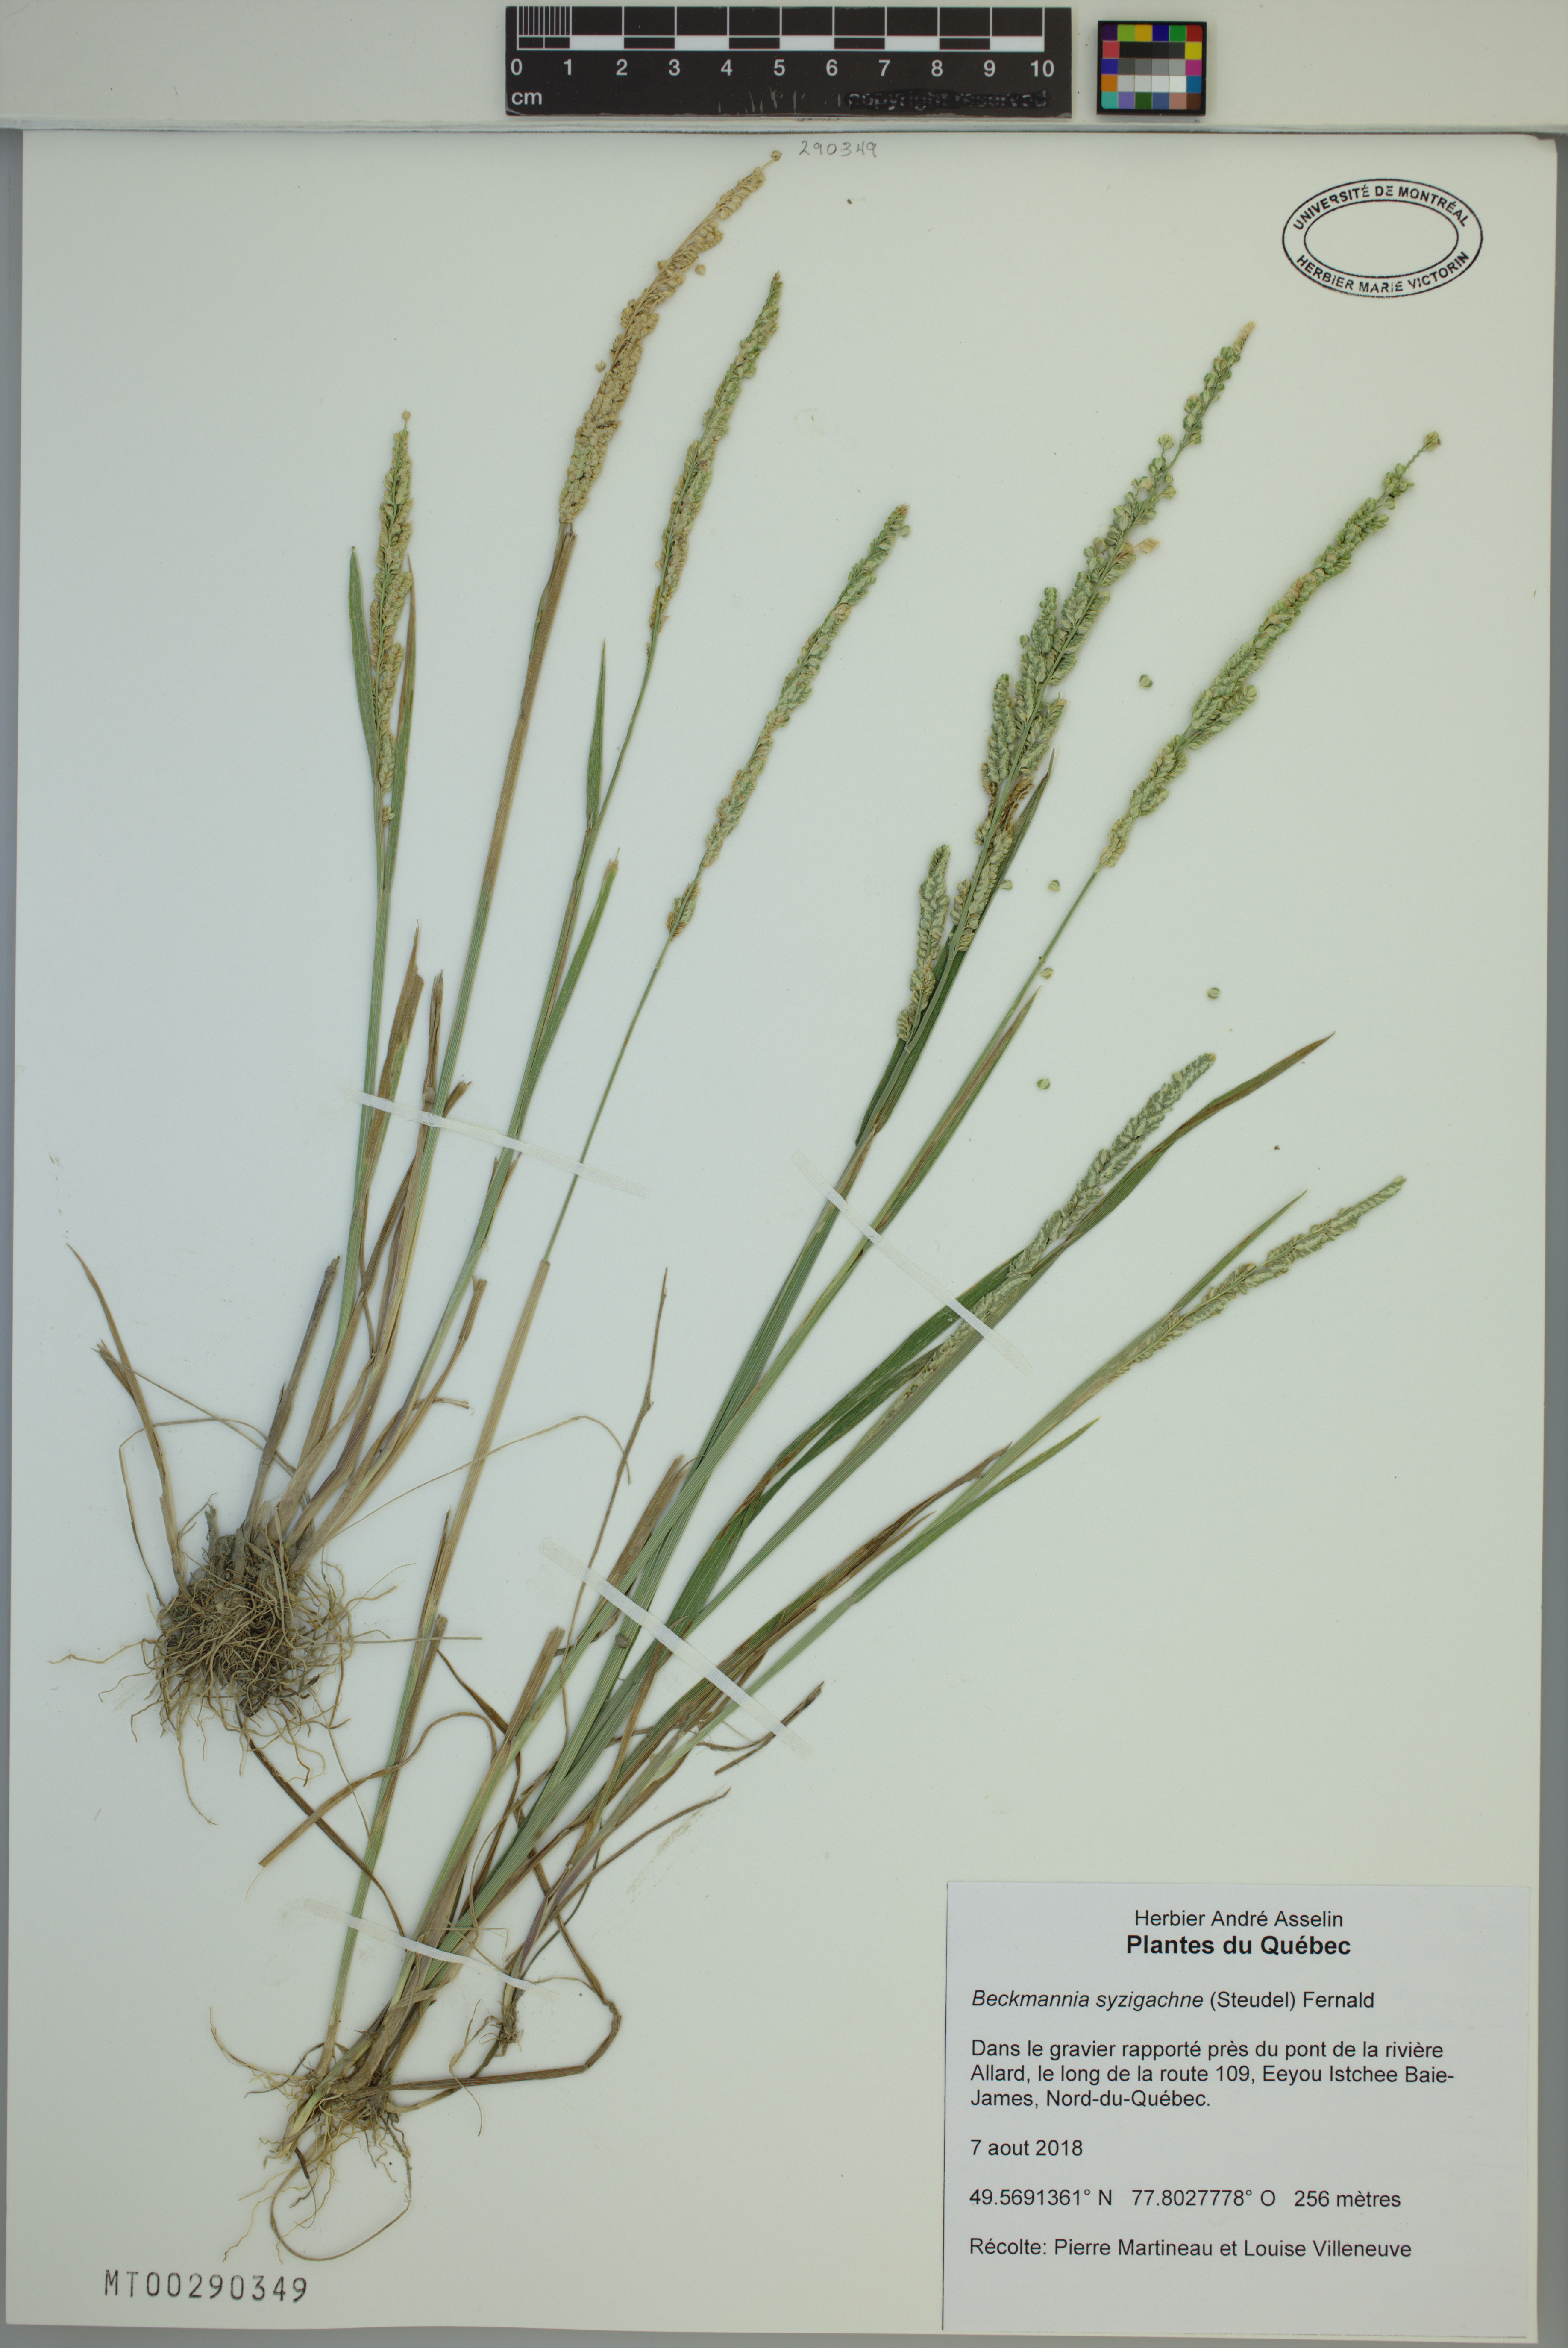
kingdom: Plantae
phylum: Tracheophyta
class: Liliopsida
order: Poales
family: Poaceae
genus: Beckmannia
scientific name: Beckmannia syzigachne
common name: American slough-grass
